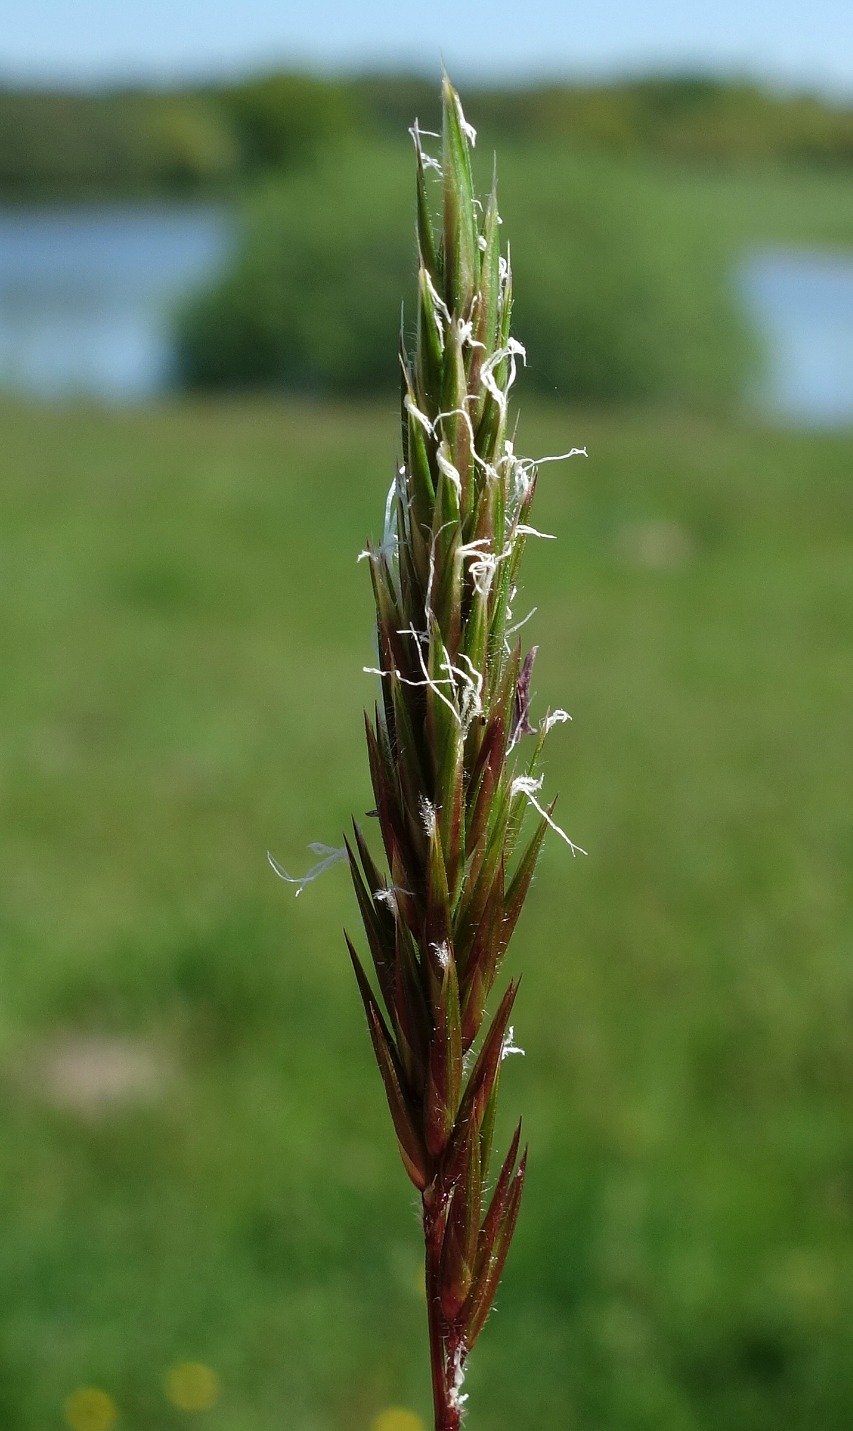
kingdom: Plantae
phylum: Tracheophyta
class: Liliopsida
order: Poales
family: Poaceae
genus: Anthoxanthum
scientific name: Anthoxanthum odoratum
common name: Vellugtende gulaks
